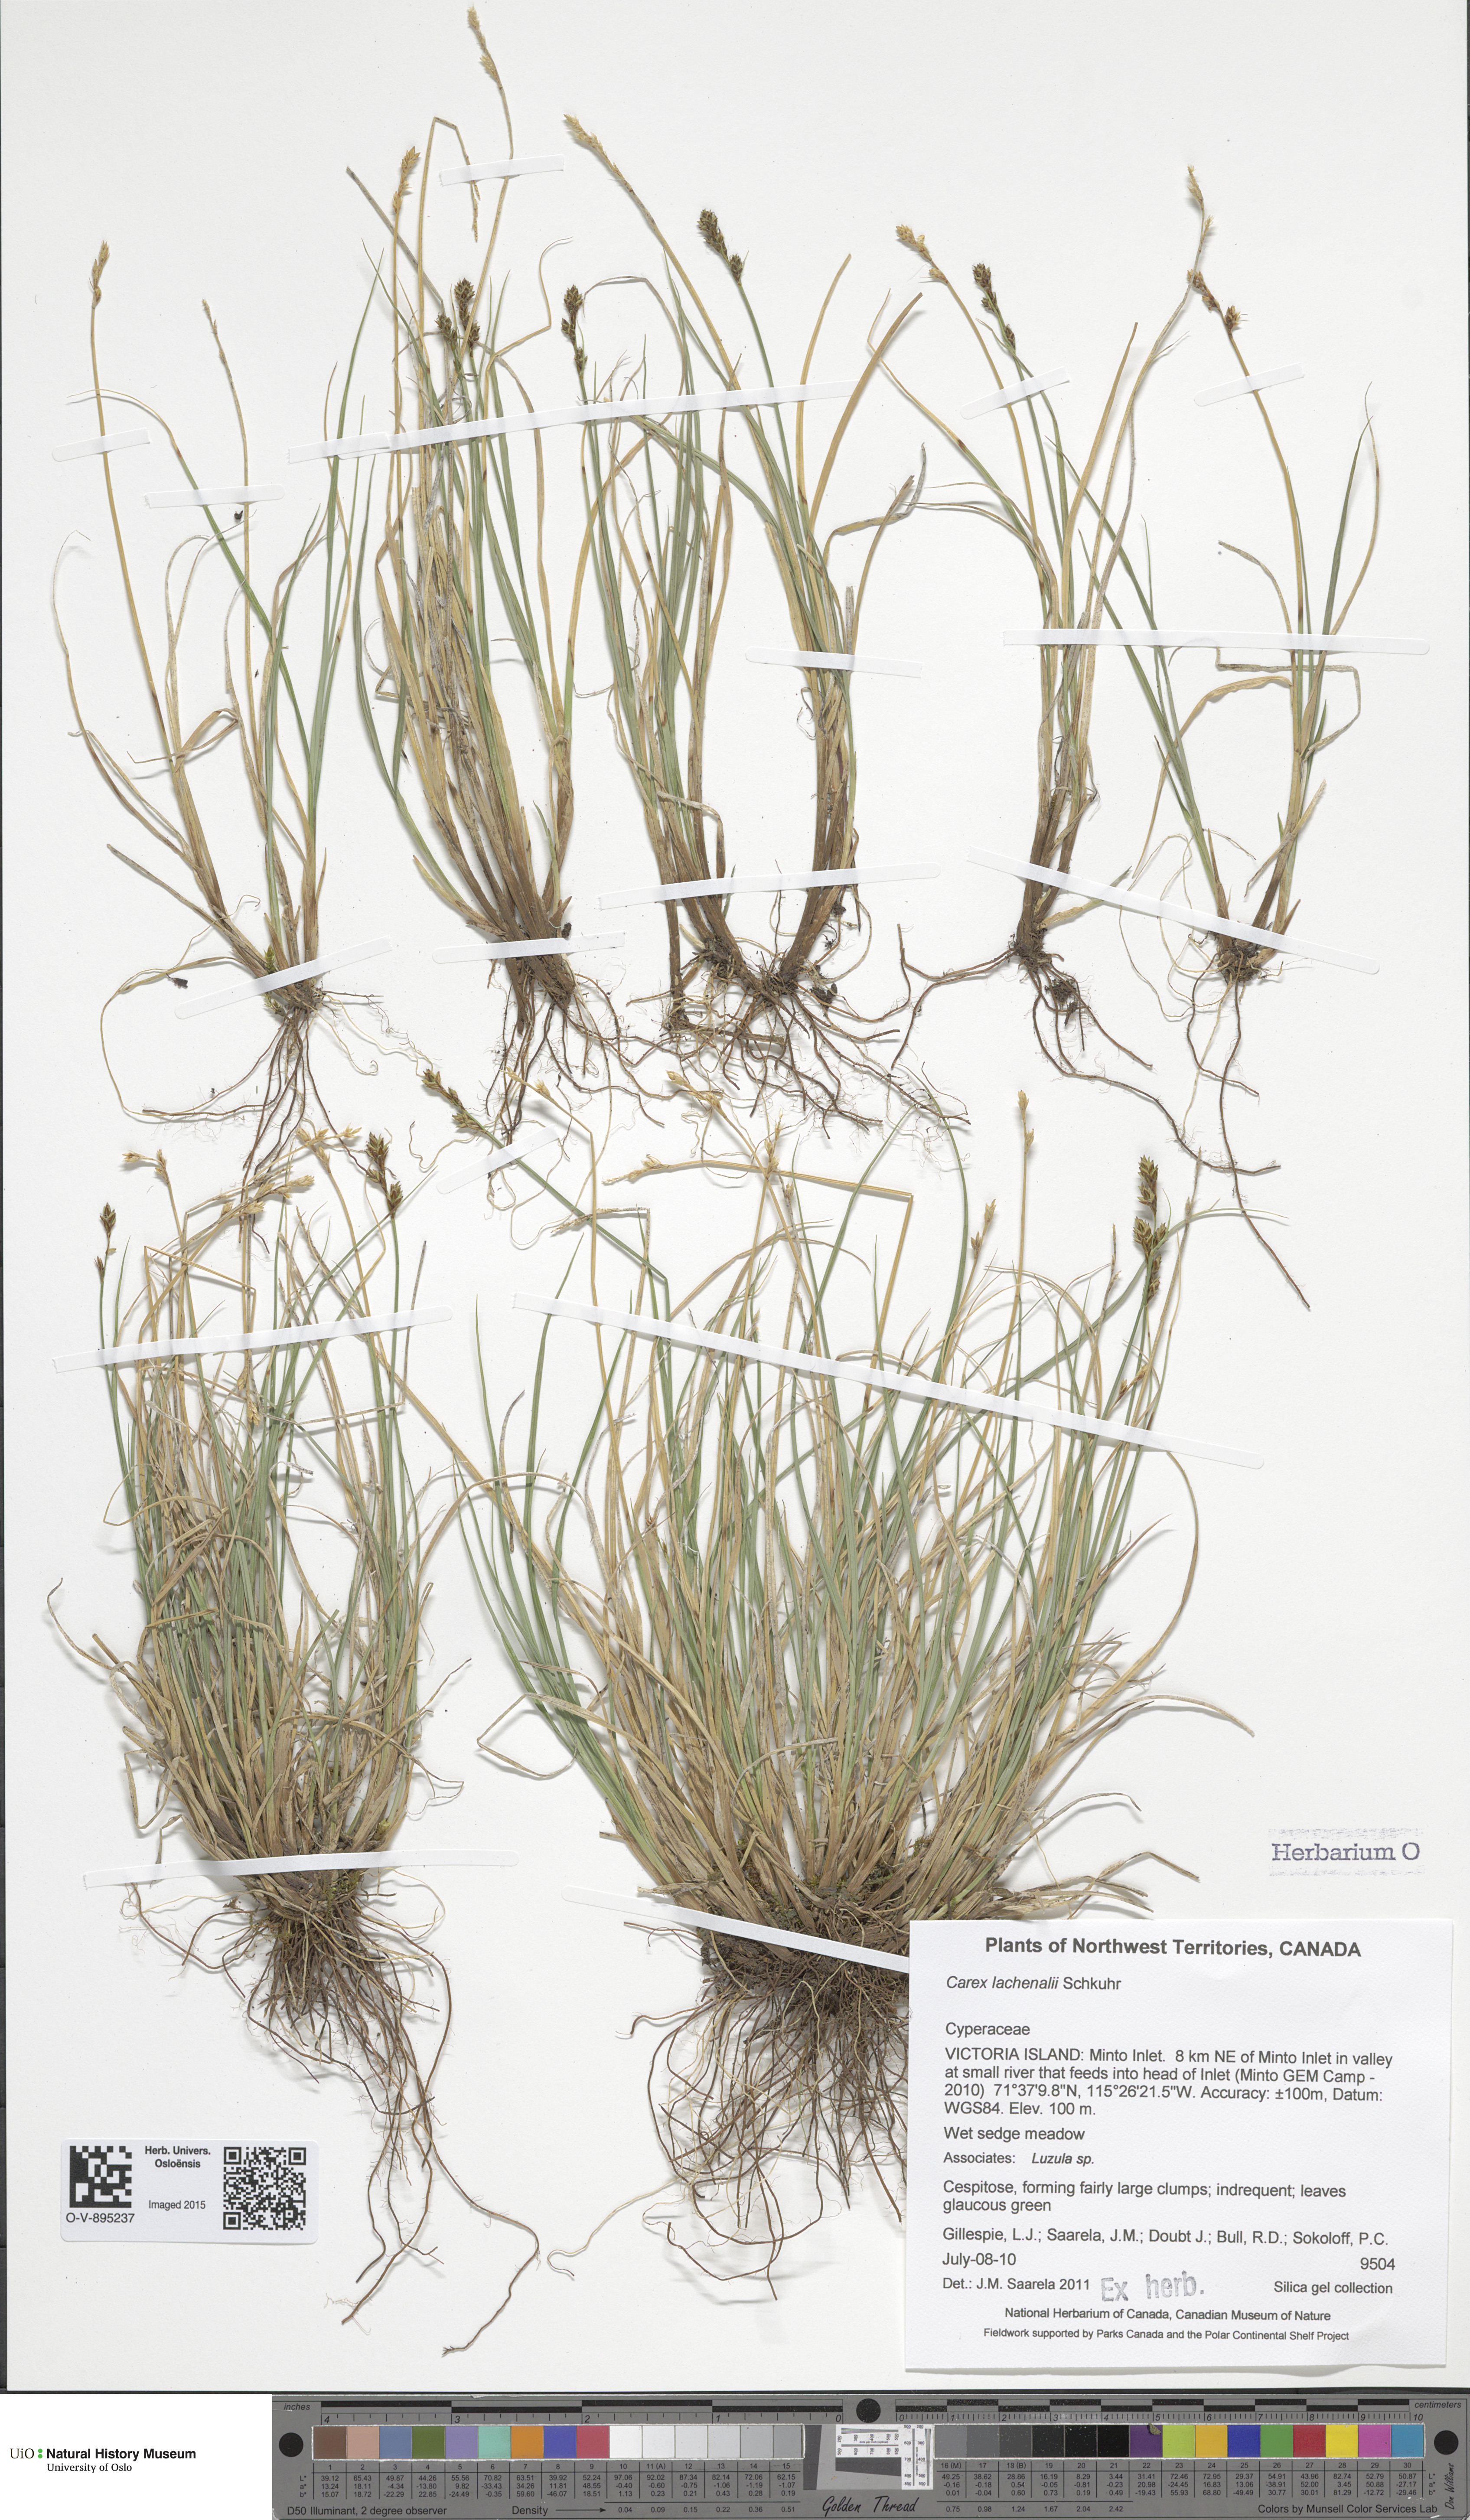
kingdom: Plantae
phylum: Tracheophyta
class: Liliopsida
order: Poales
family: Cyperaceae
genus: Carex
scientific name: Carex marina
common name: Seashore sedge
